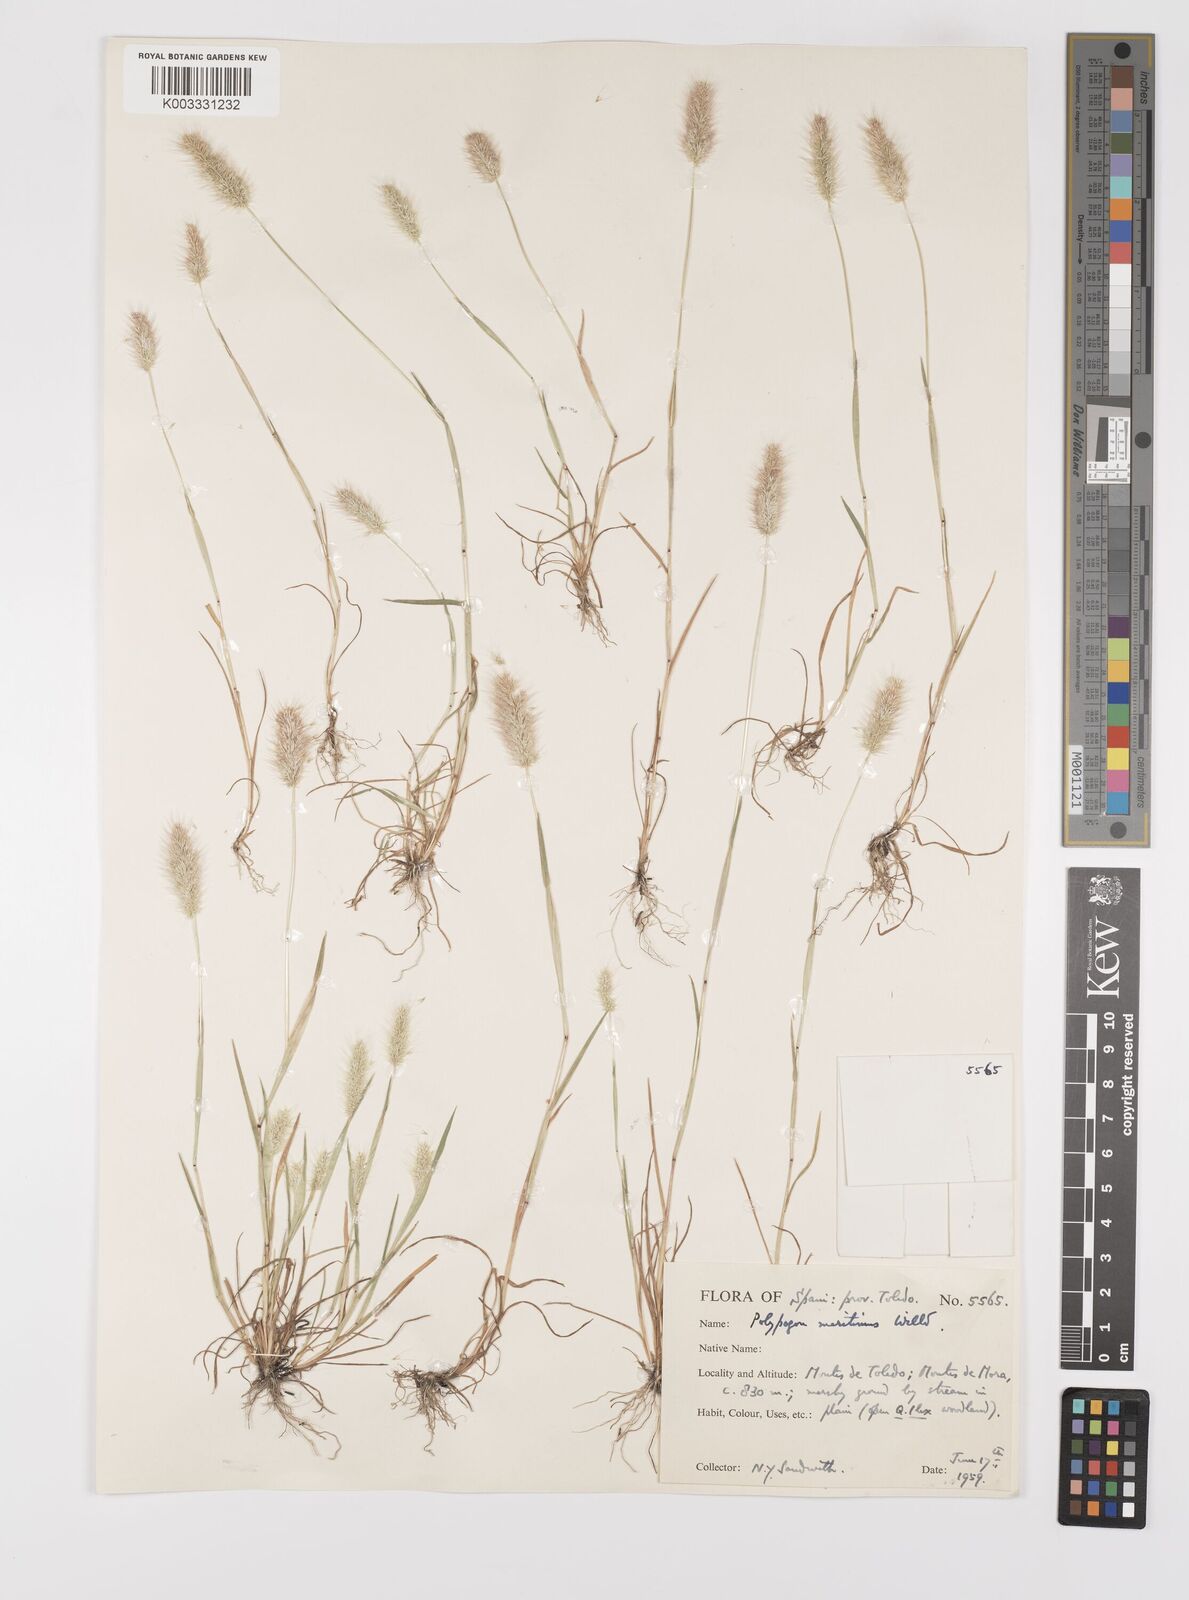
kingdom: Plantae
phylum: Tracheophyta
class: Liliopsida
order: Poales
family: Poaceae
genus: Polypogon
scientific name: Polypogon maritimus
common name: Mediterranean rabbitsfoot grass
